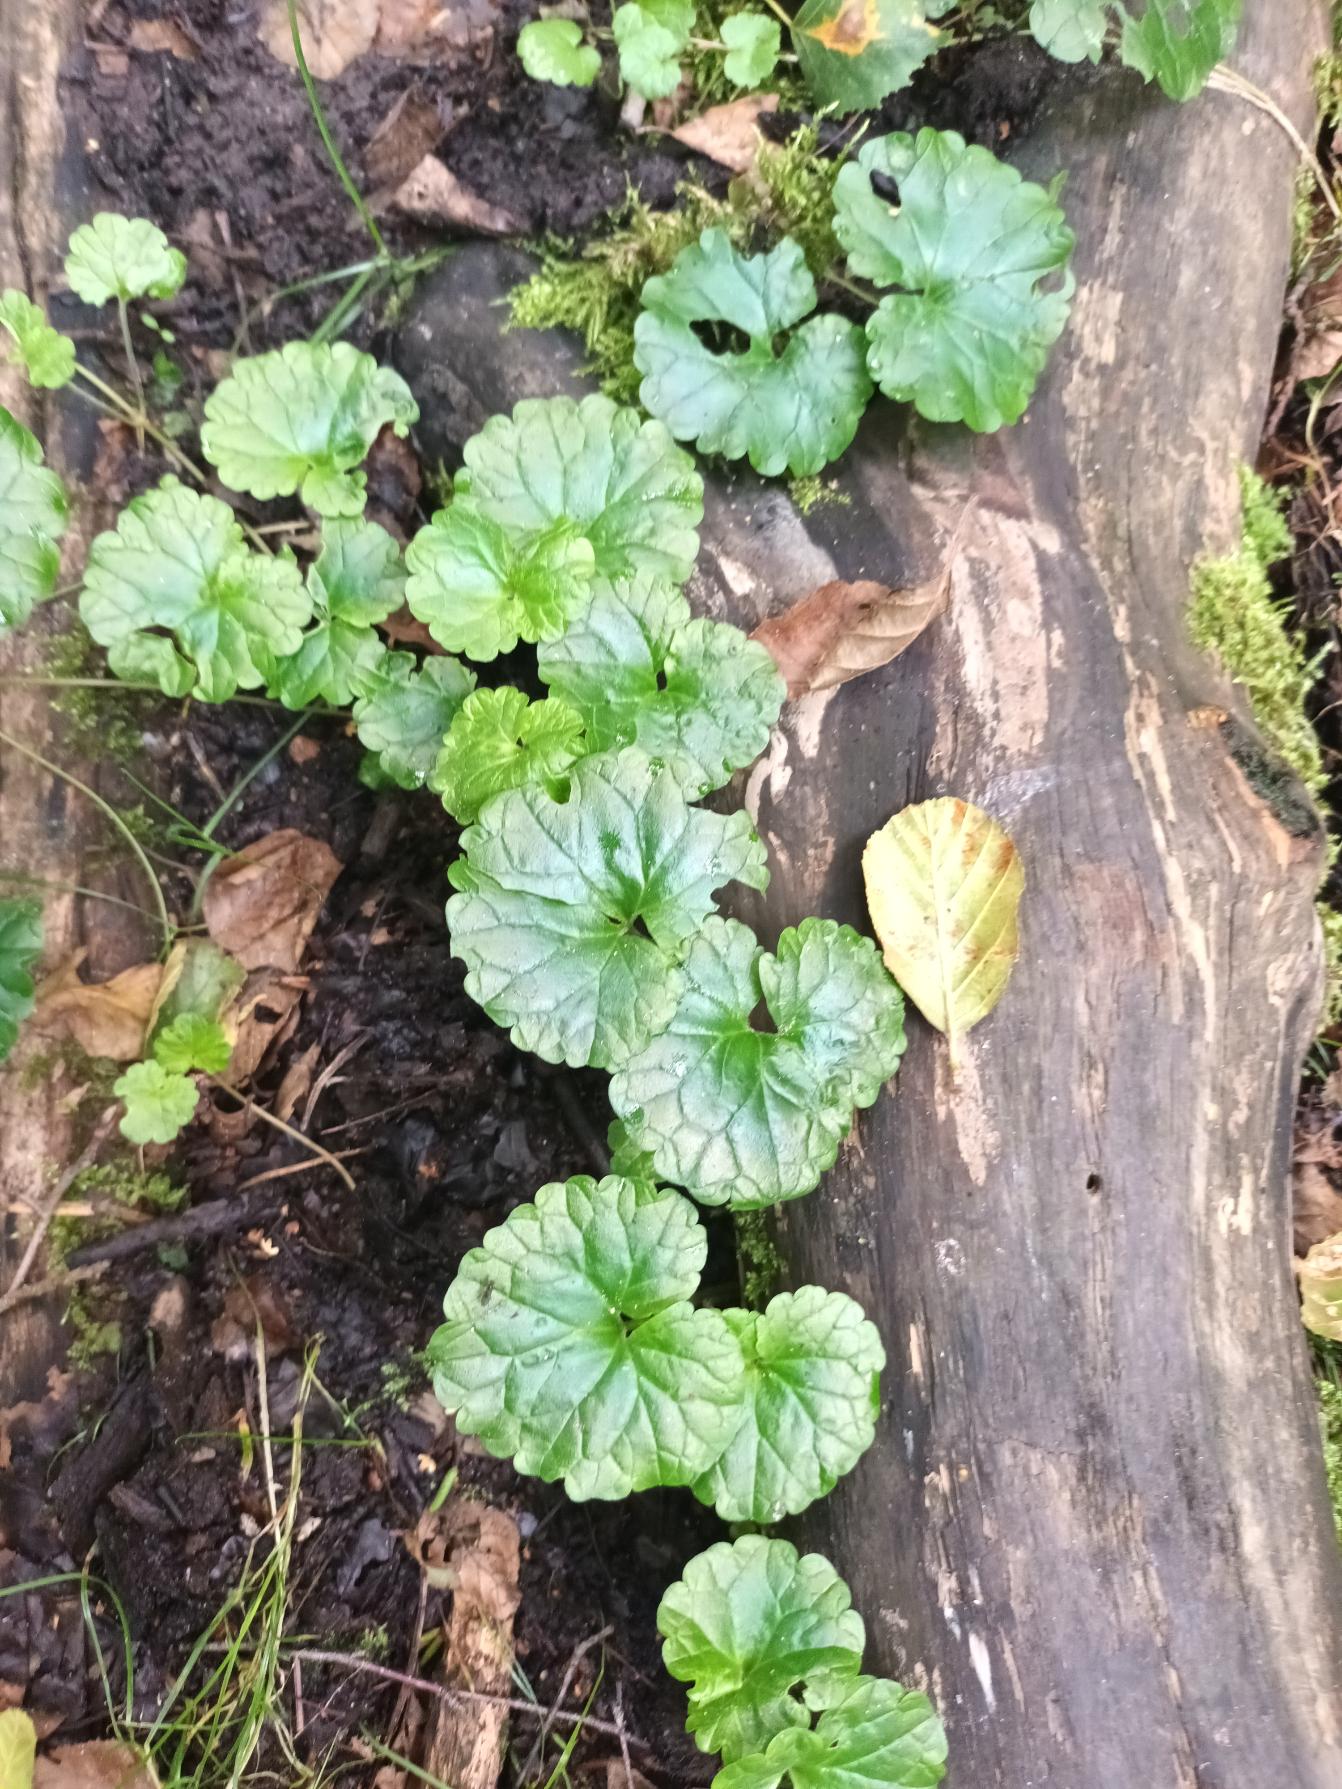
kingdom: Plantae
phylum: Tracheophyta
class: Magnoliopsida
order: Lamiales
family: Lamiaceae
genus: Glechoma
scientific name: Glechoma hederacea
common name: Korsknap
